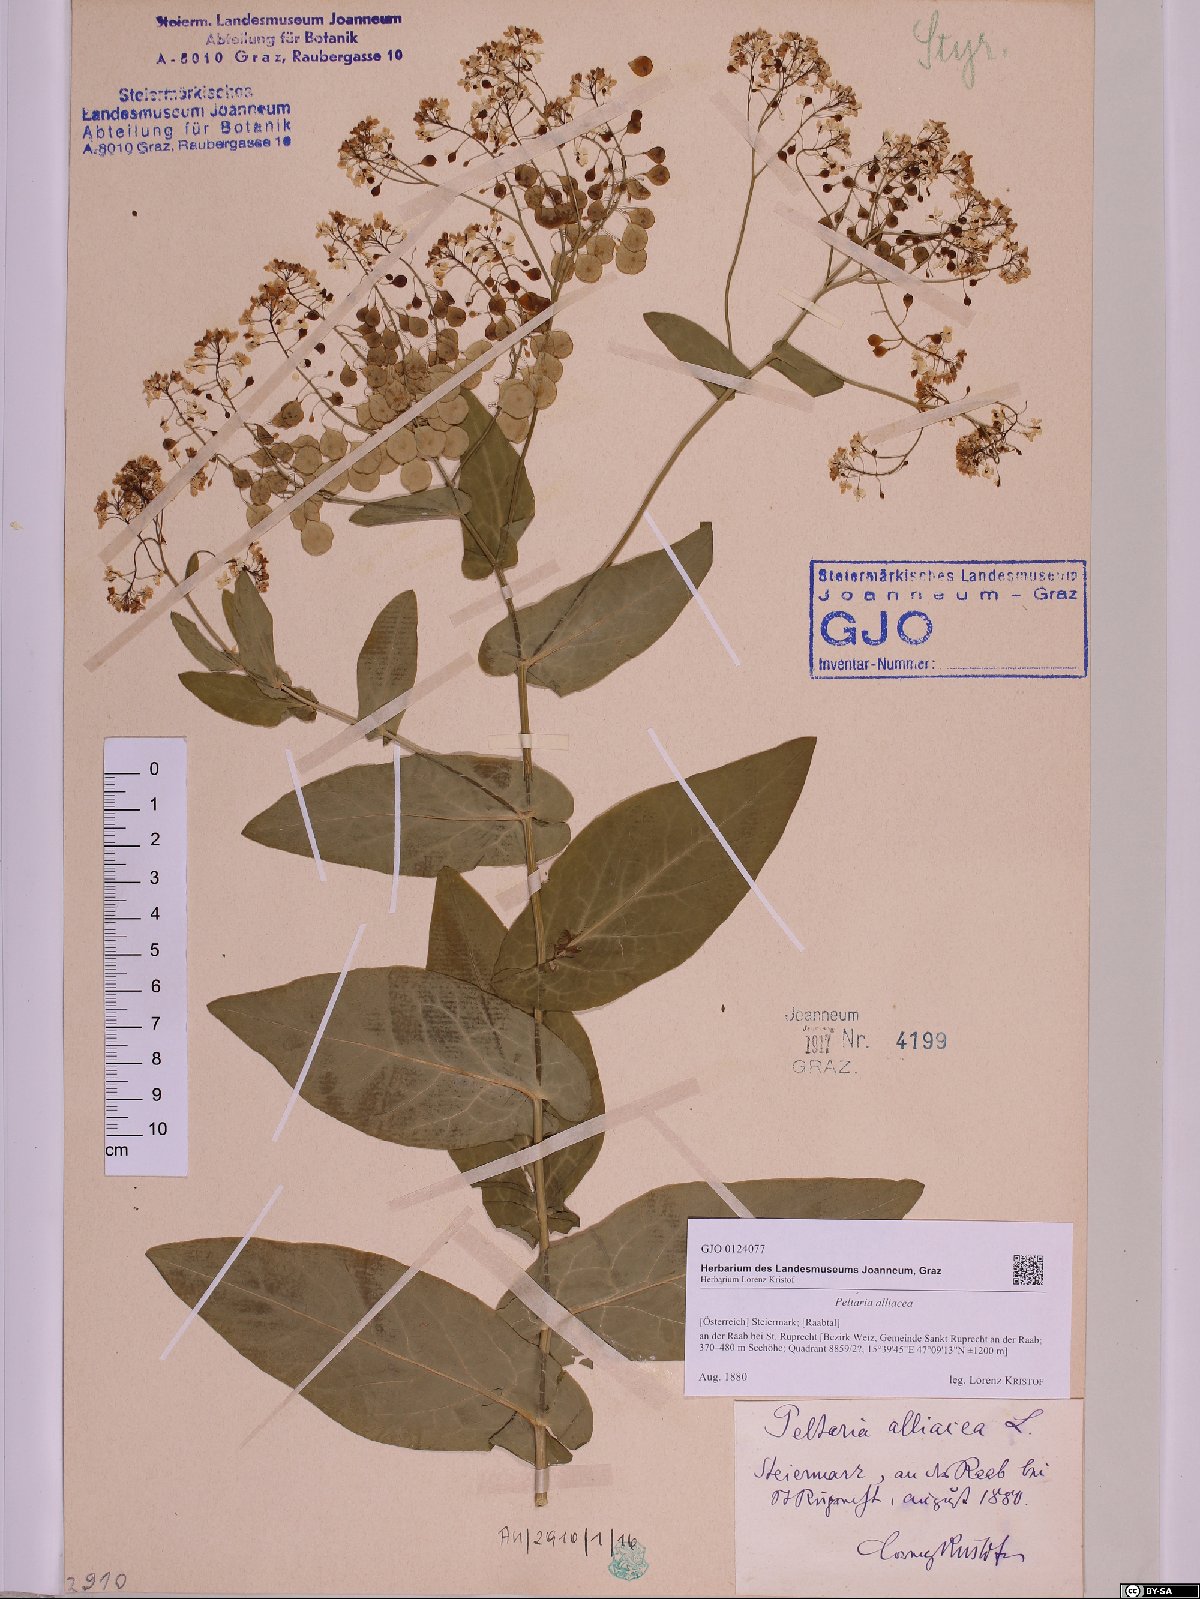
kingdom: Plantae
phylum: Tracheophyta
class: Magnoliopsida
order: Brassicales
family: Brassicaceae
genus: Peltaria
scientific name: Peltaria alliacea
